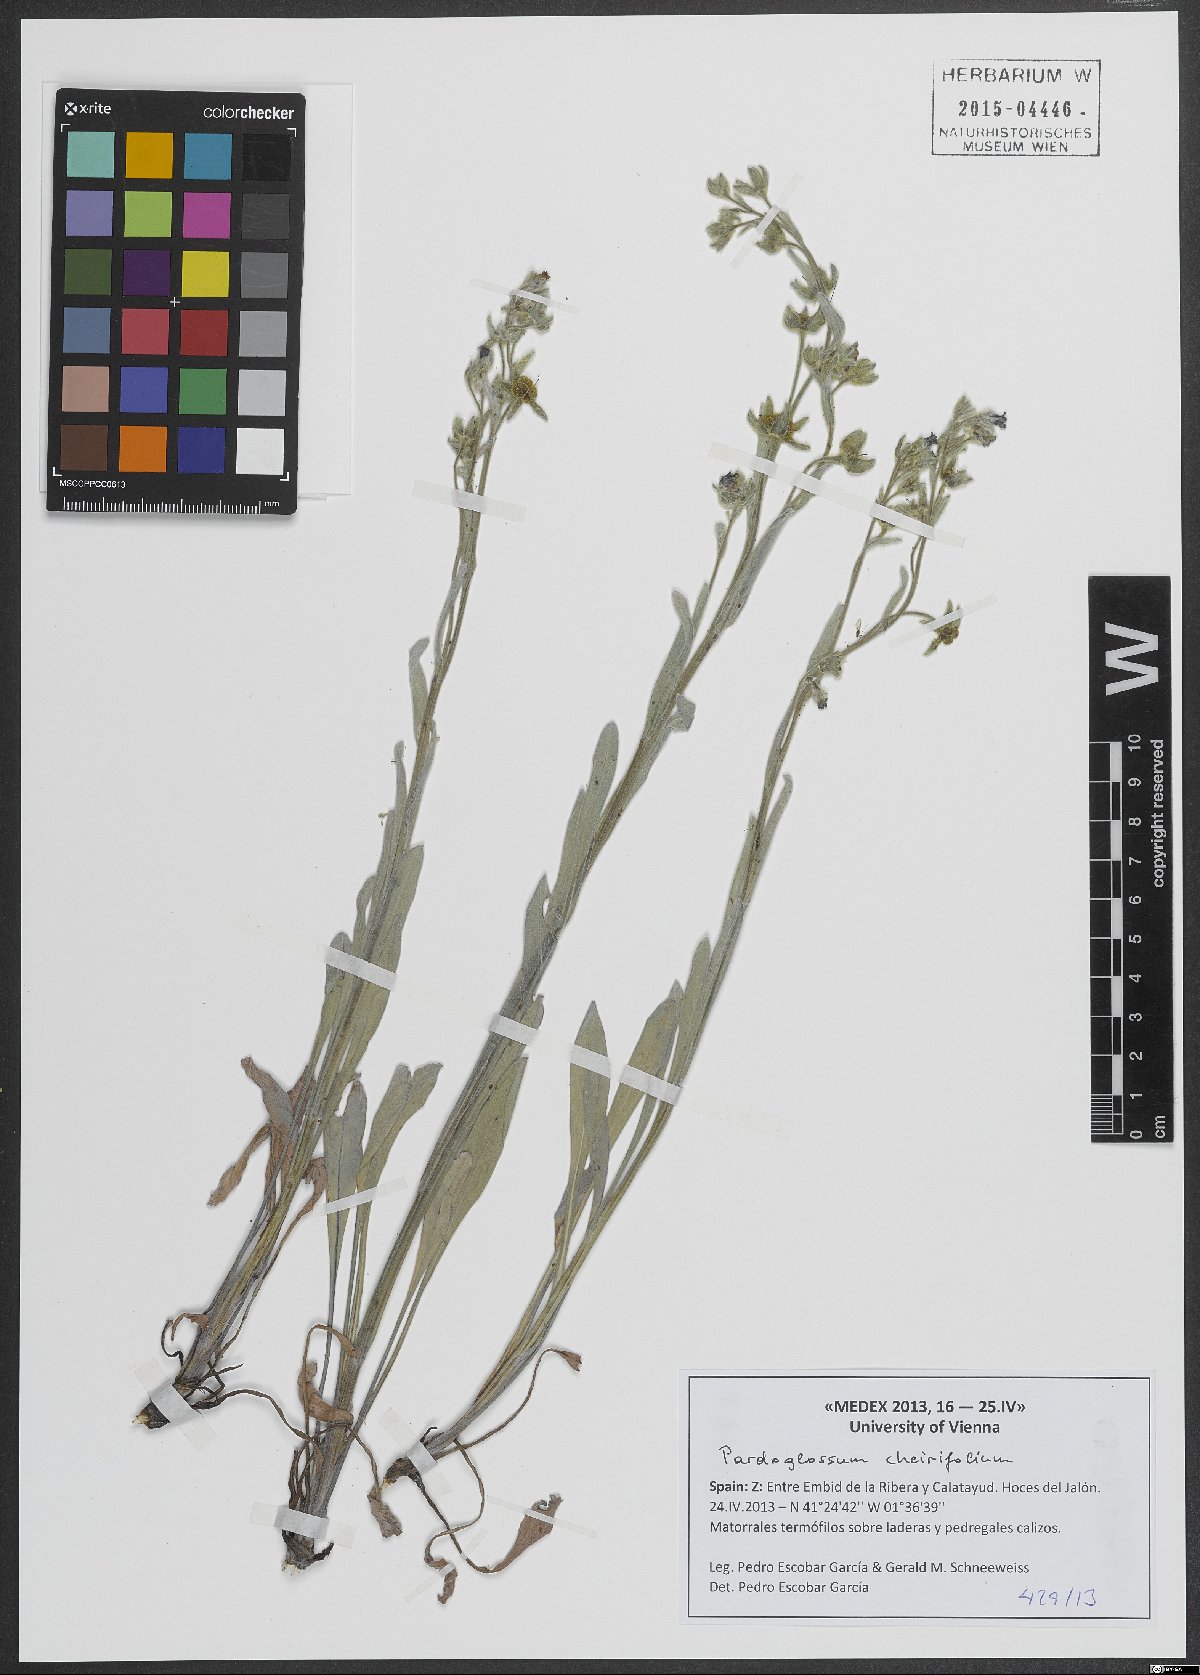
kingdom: Plantae
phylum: Tracheophyta
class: Magnoliopsida
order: Boraginales
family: Boraginaceae
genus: Pardoglossum
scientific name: Pardoglossum cheirifolium
